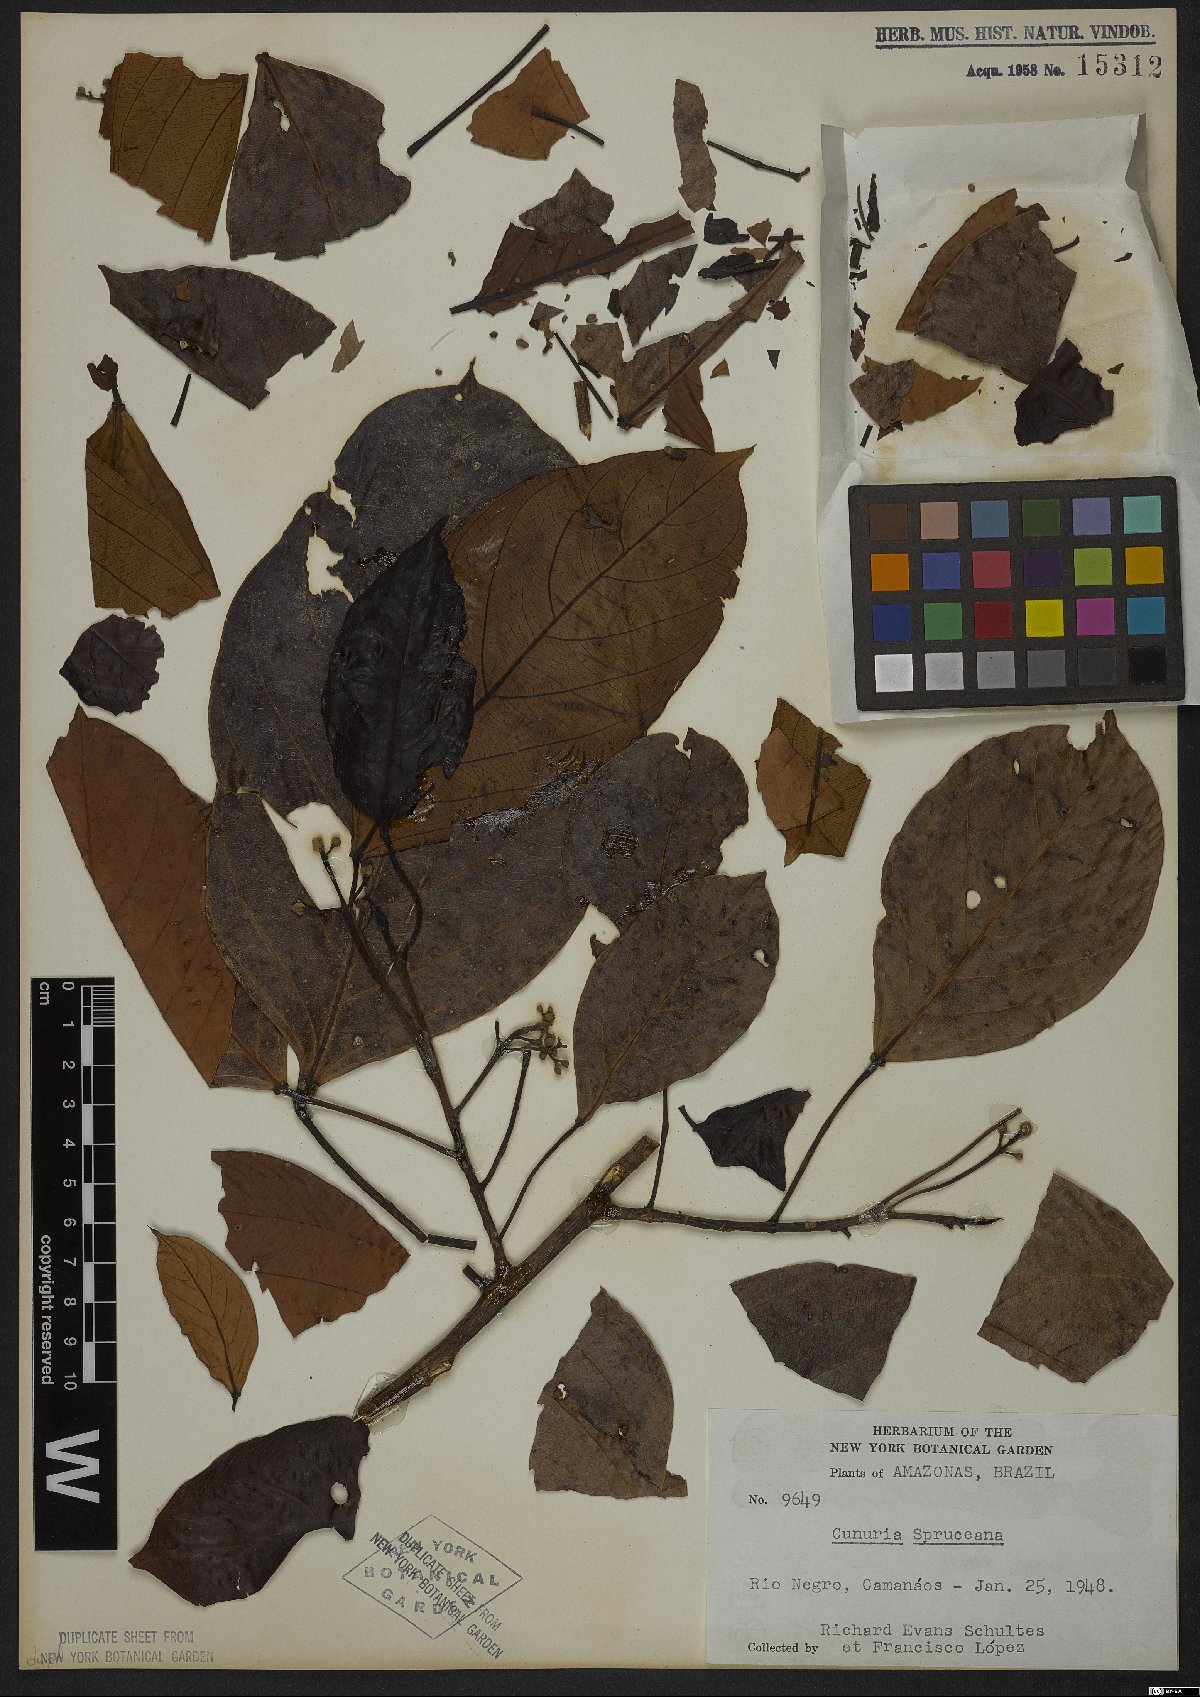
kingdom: Plantae
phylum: Tracheophyta
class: Magnoliopsida
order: Malpighiales
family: Euphorbiaceae
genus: Micrandra
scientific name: Micrandra spruceana
